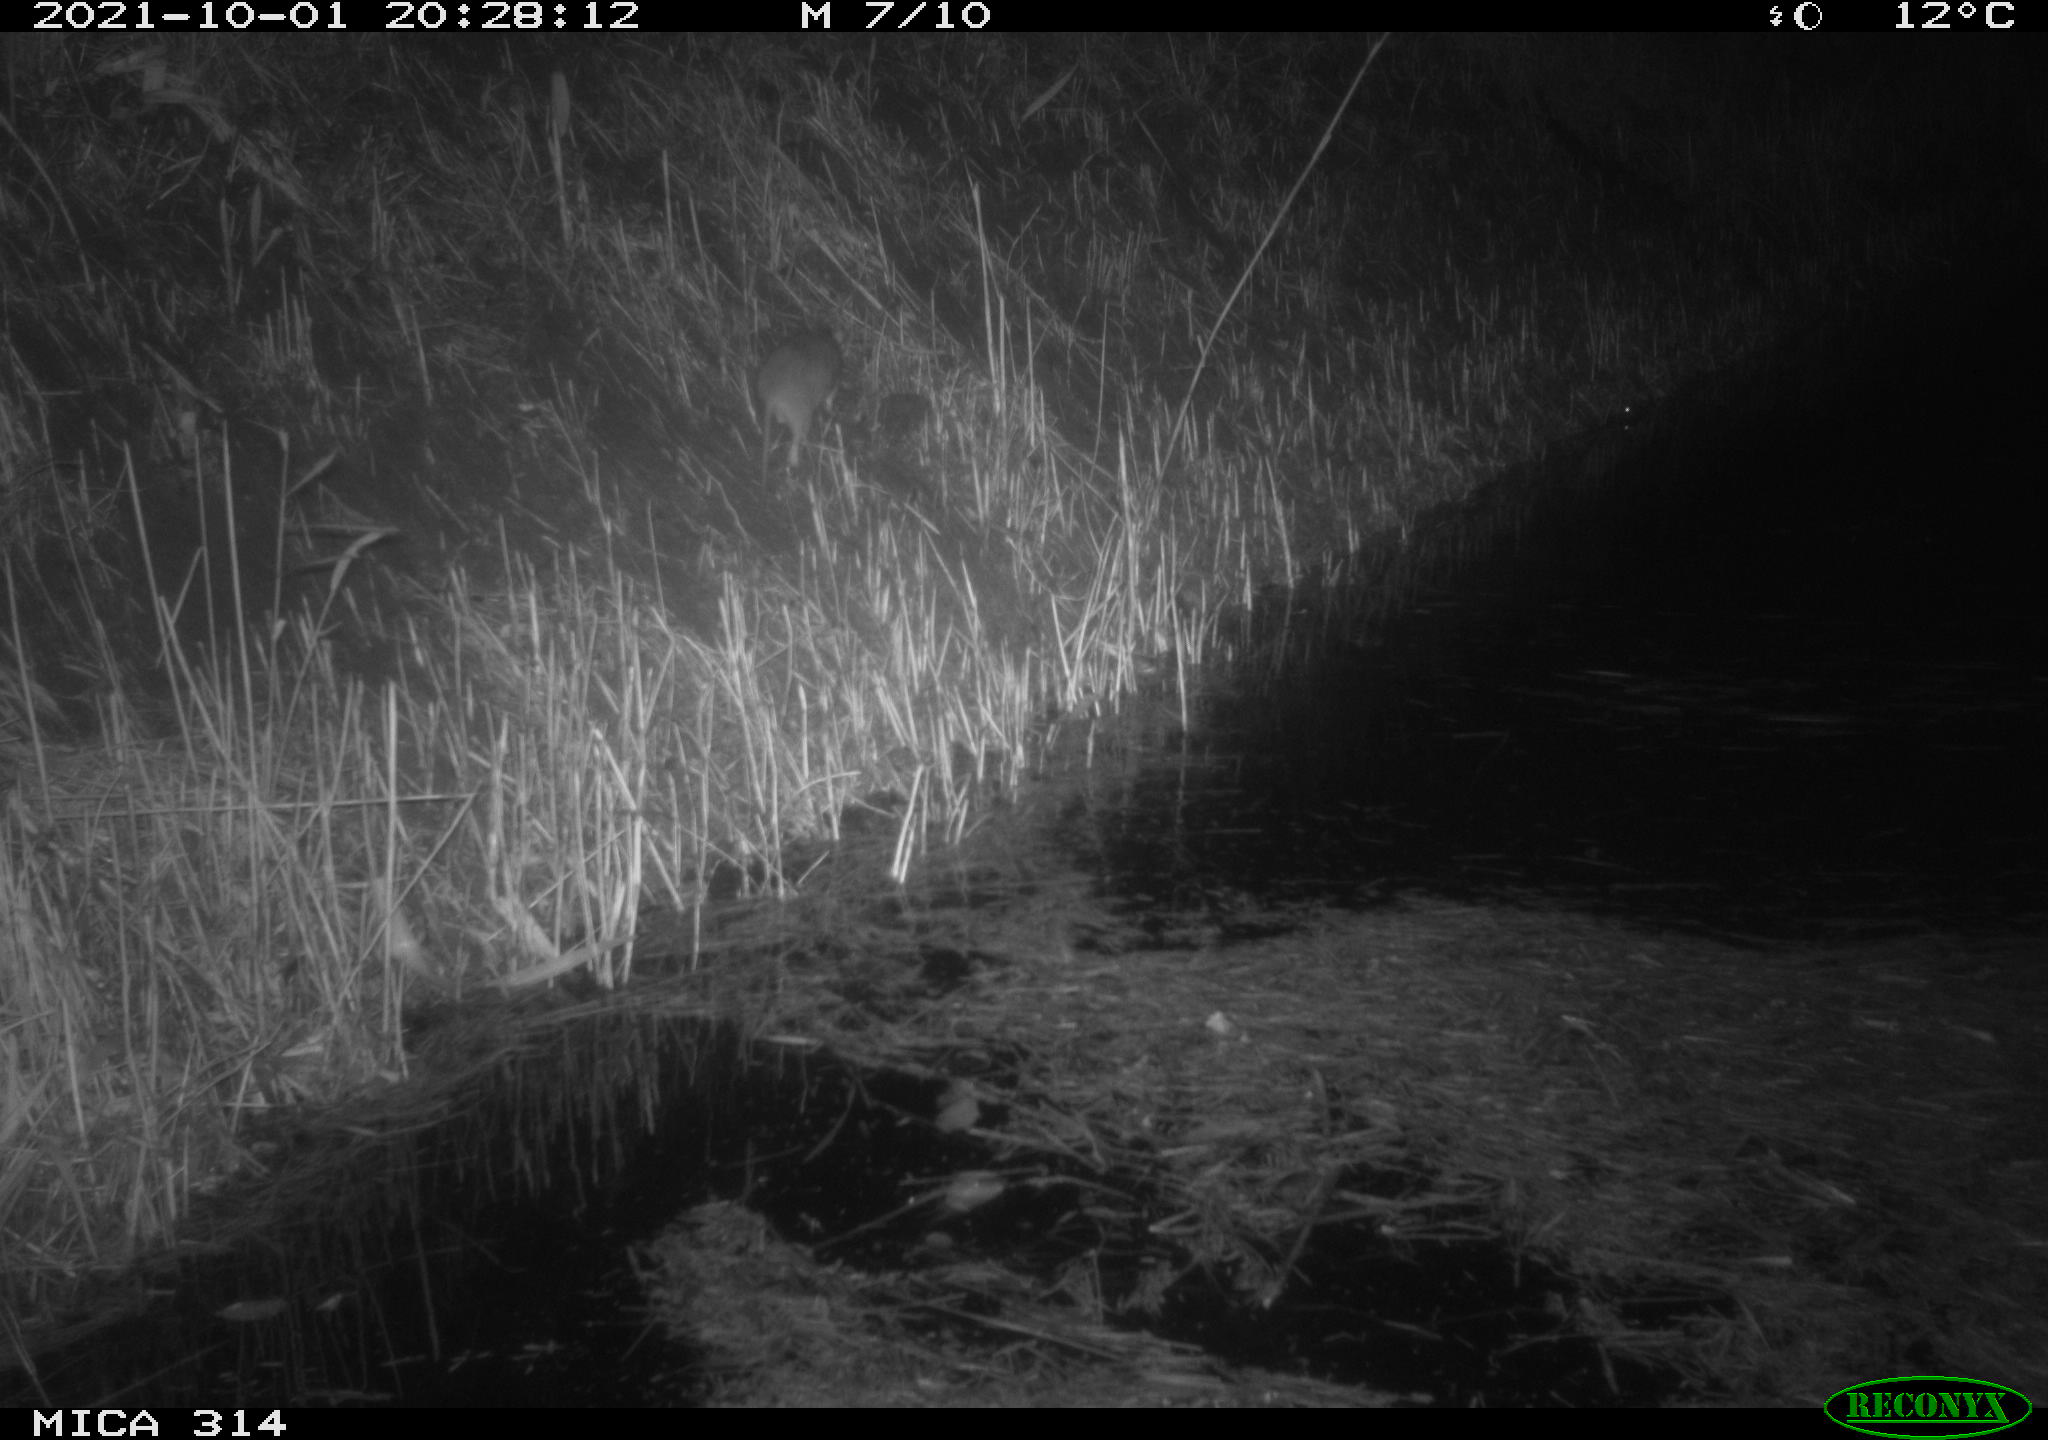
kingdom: Animalia
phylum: Chordata
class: Mammalia
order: Rodentia
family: Muridae
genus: Rattus
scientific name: Rattus norvegicus
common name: Brown rat
